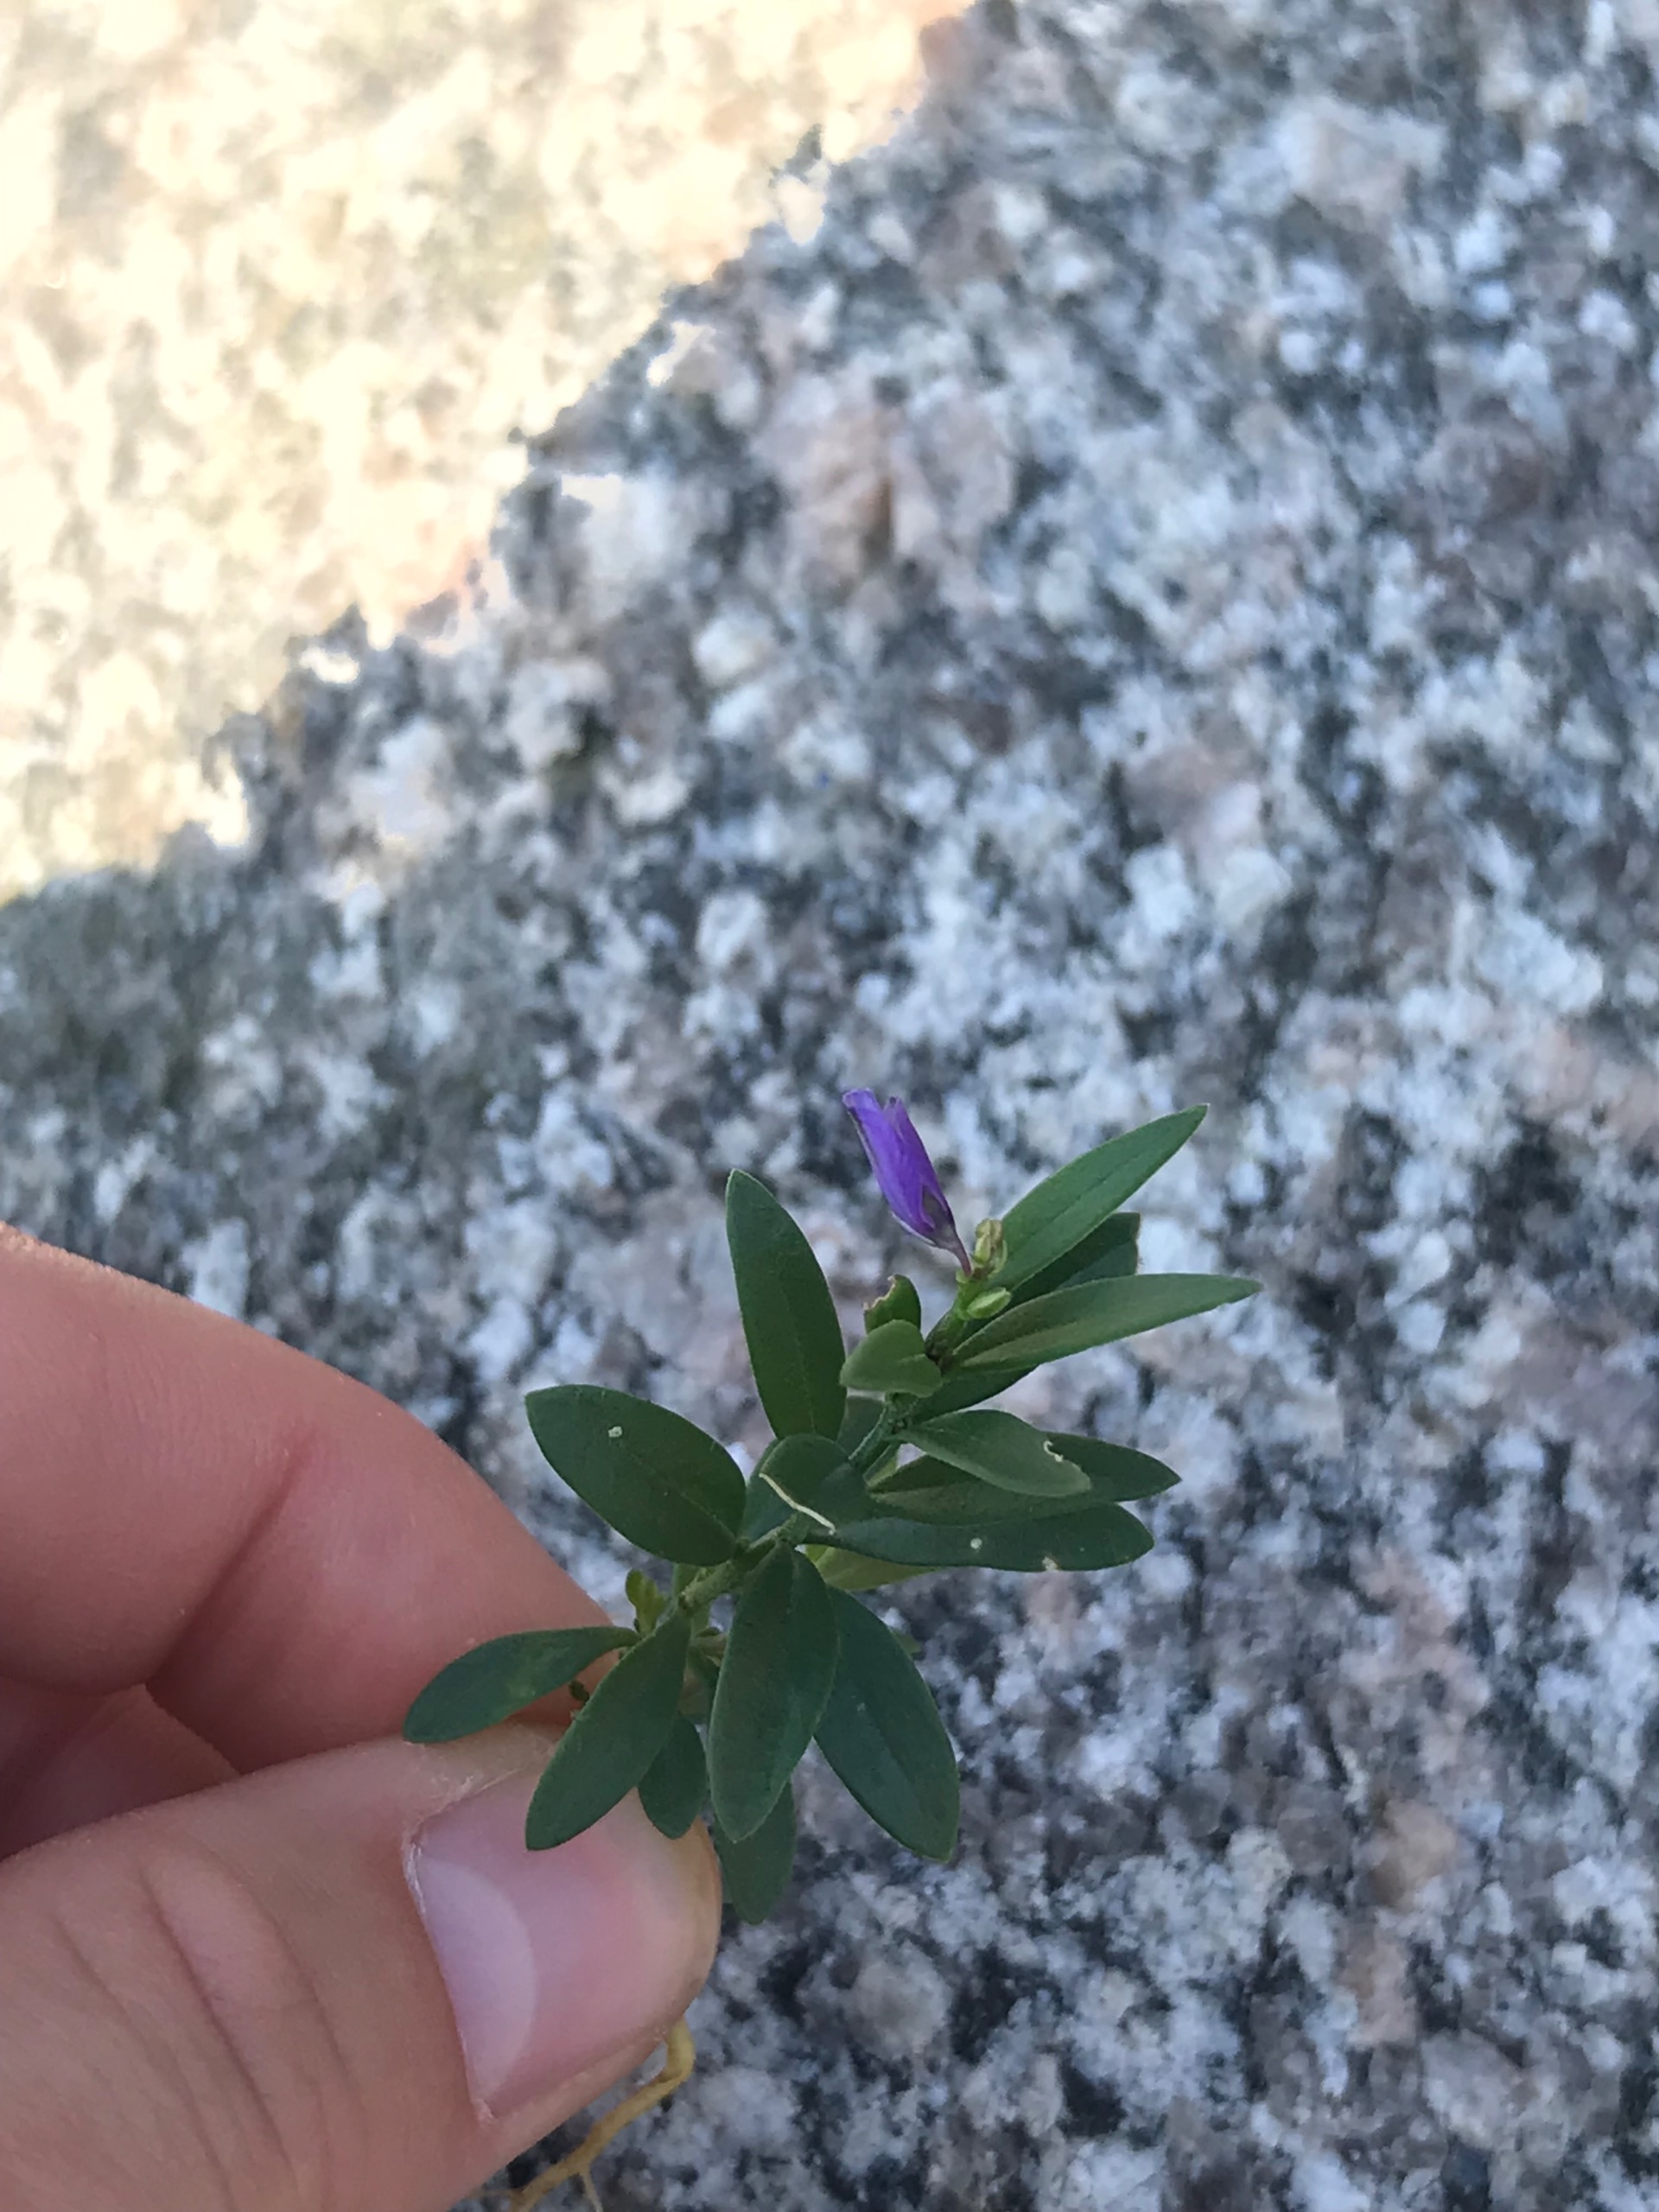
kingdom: Plantae
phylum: Tracheophyta
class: Magnoliopsida
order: Fabales
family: Polygalaceae
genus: Polygala
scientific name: Polygala vulgaris
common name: Almindelig mælkeurt
